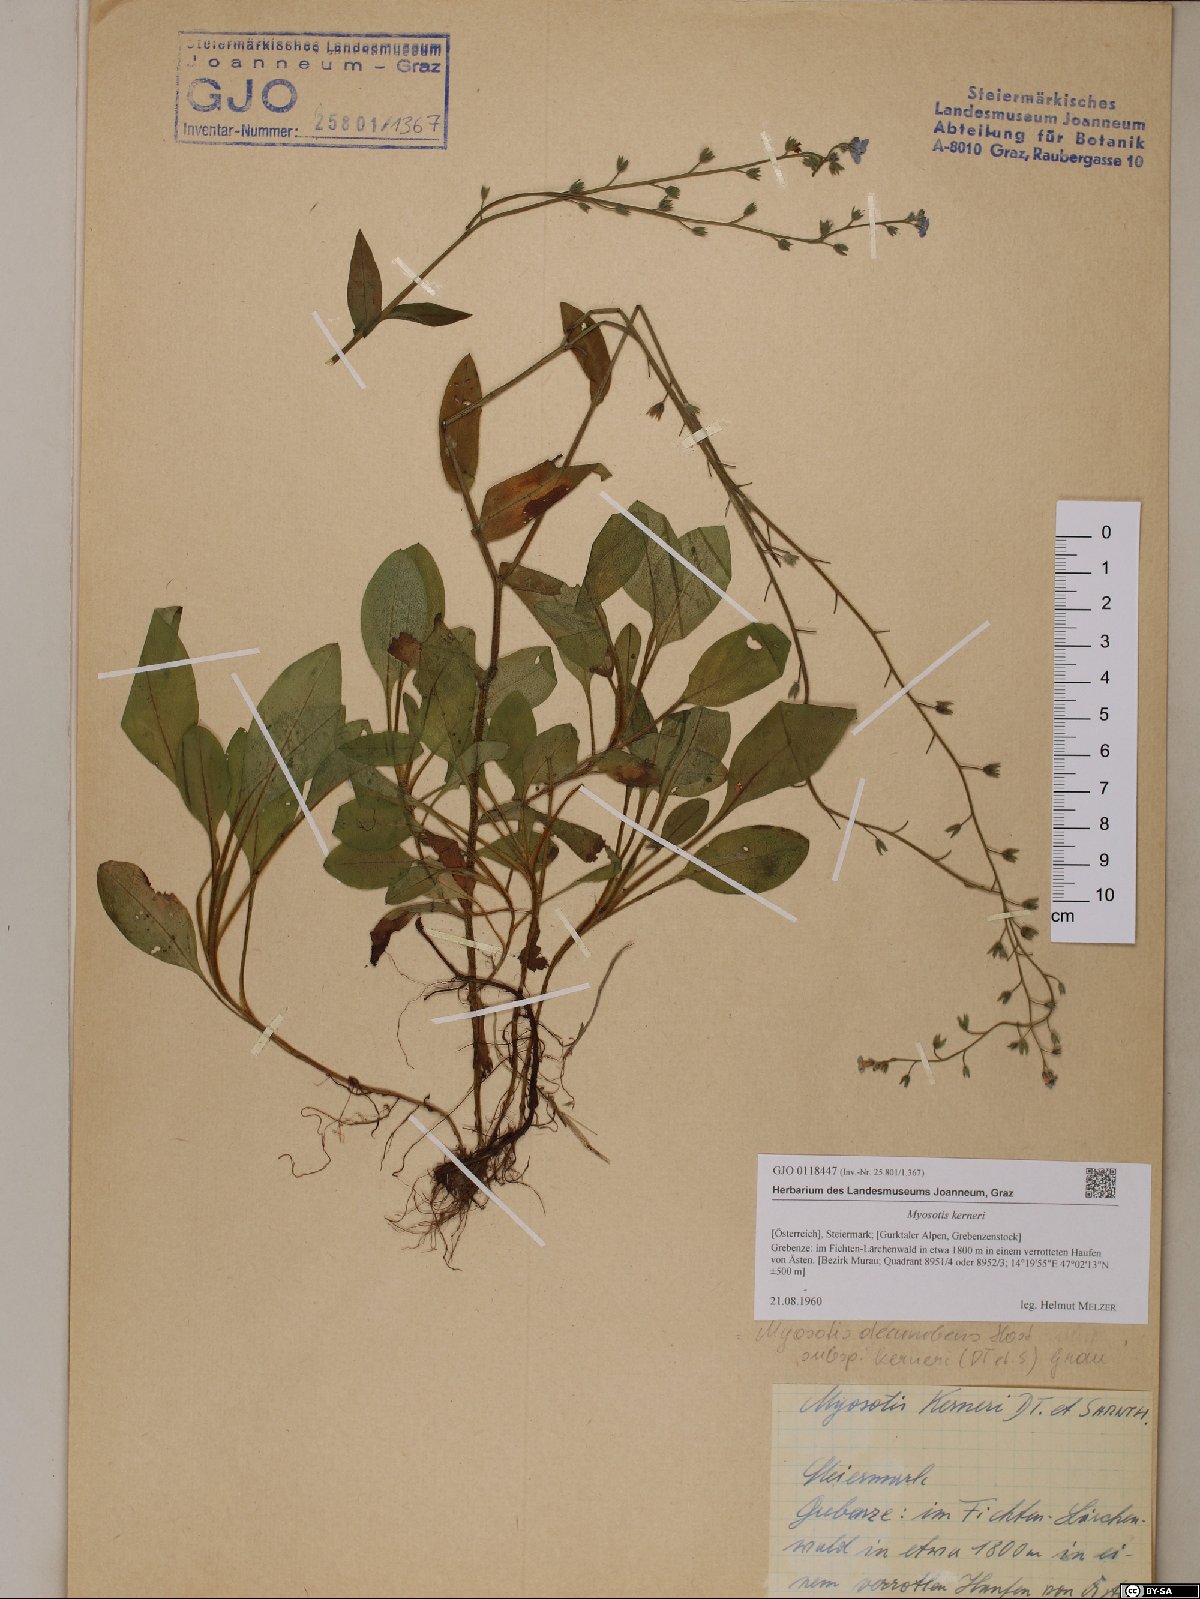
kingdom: Plantae
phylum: Tracheophyta
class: Magnoliopsida
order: Boraginales
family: Boraginaceae
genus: Myosotis
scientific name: Myosotis decumbens
